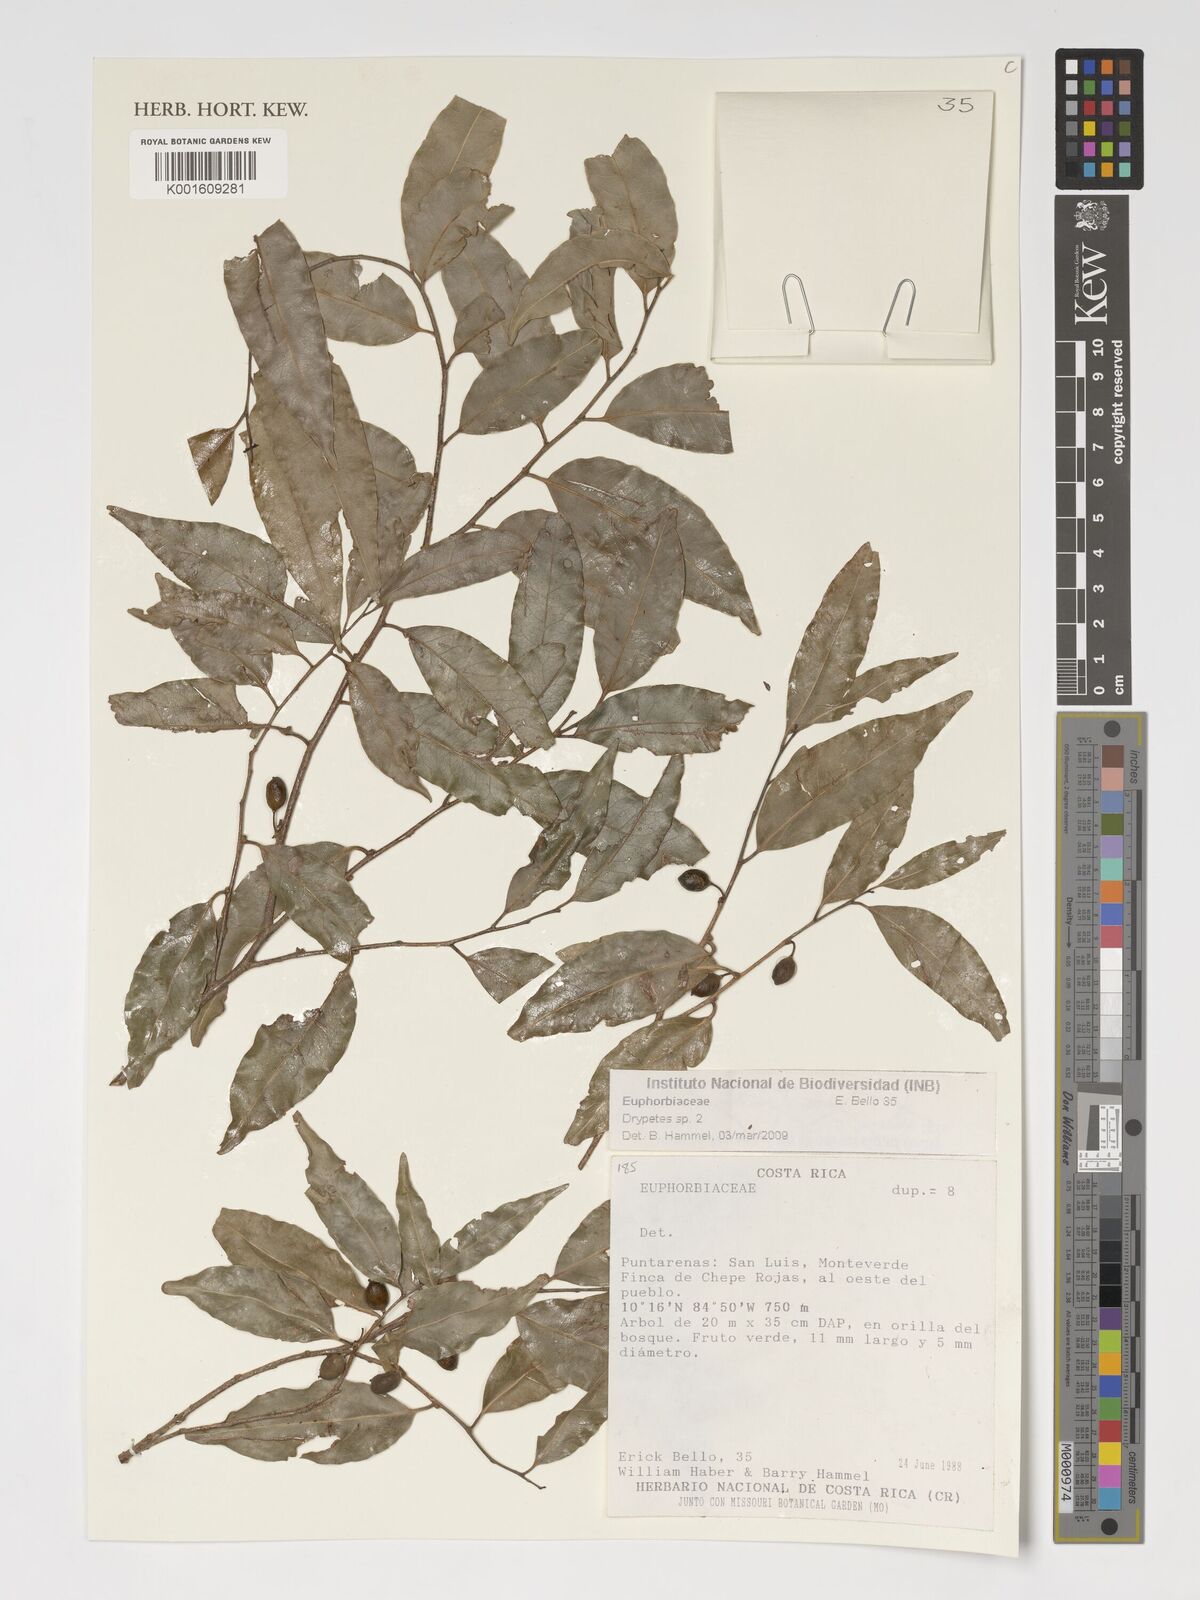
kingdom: Plantae
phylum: Tracheophyta
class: Magnoliopsida
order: Malpighiales
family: Putranjivaceae
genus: Drypetes
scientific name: Drypetes
